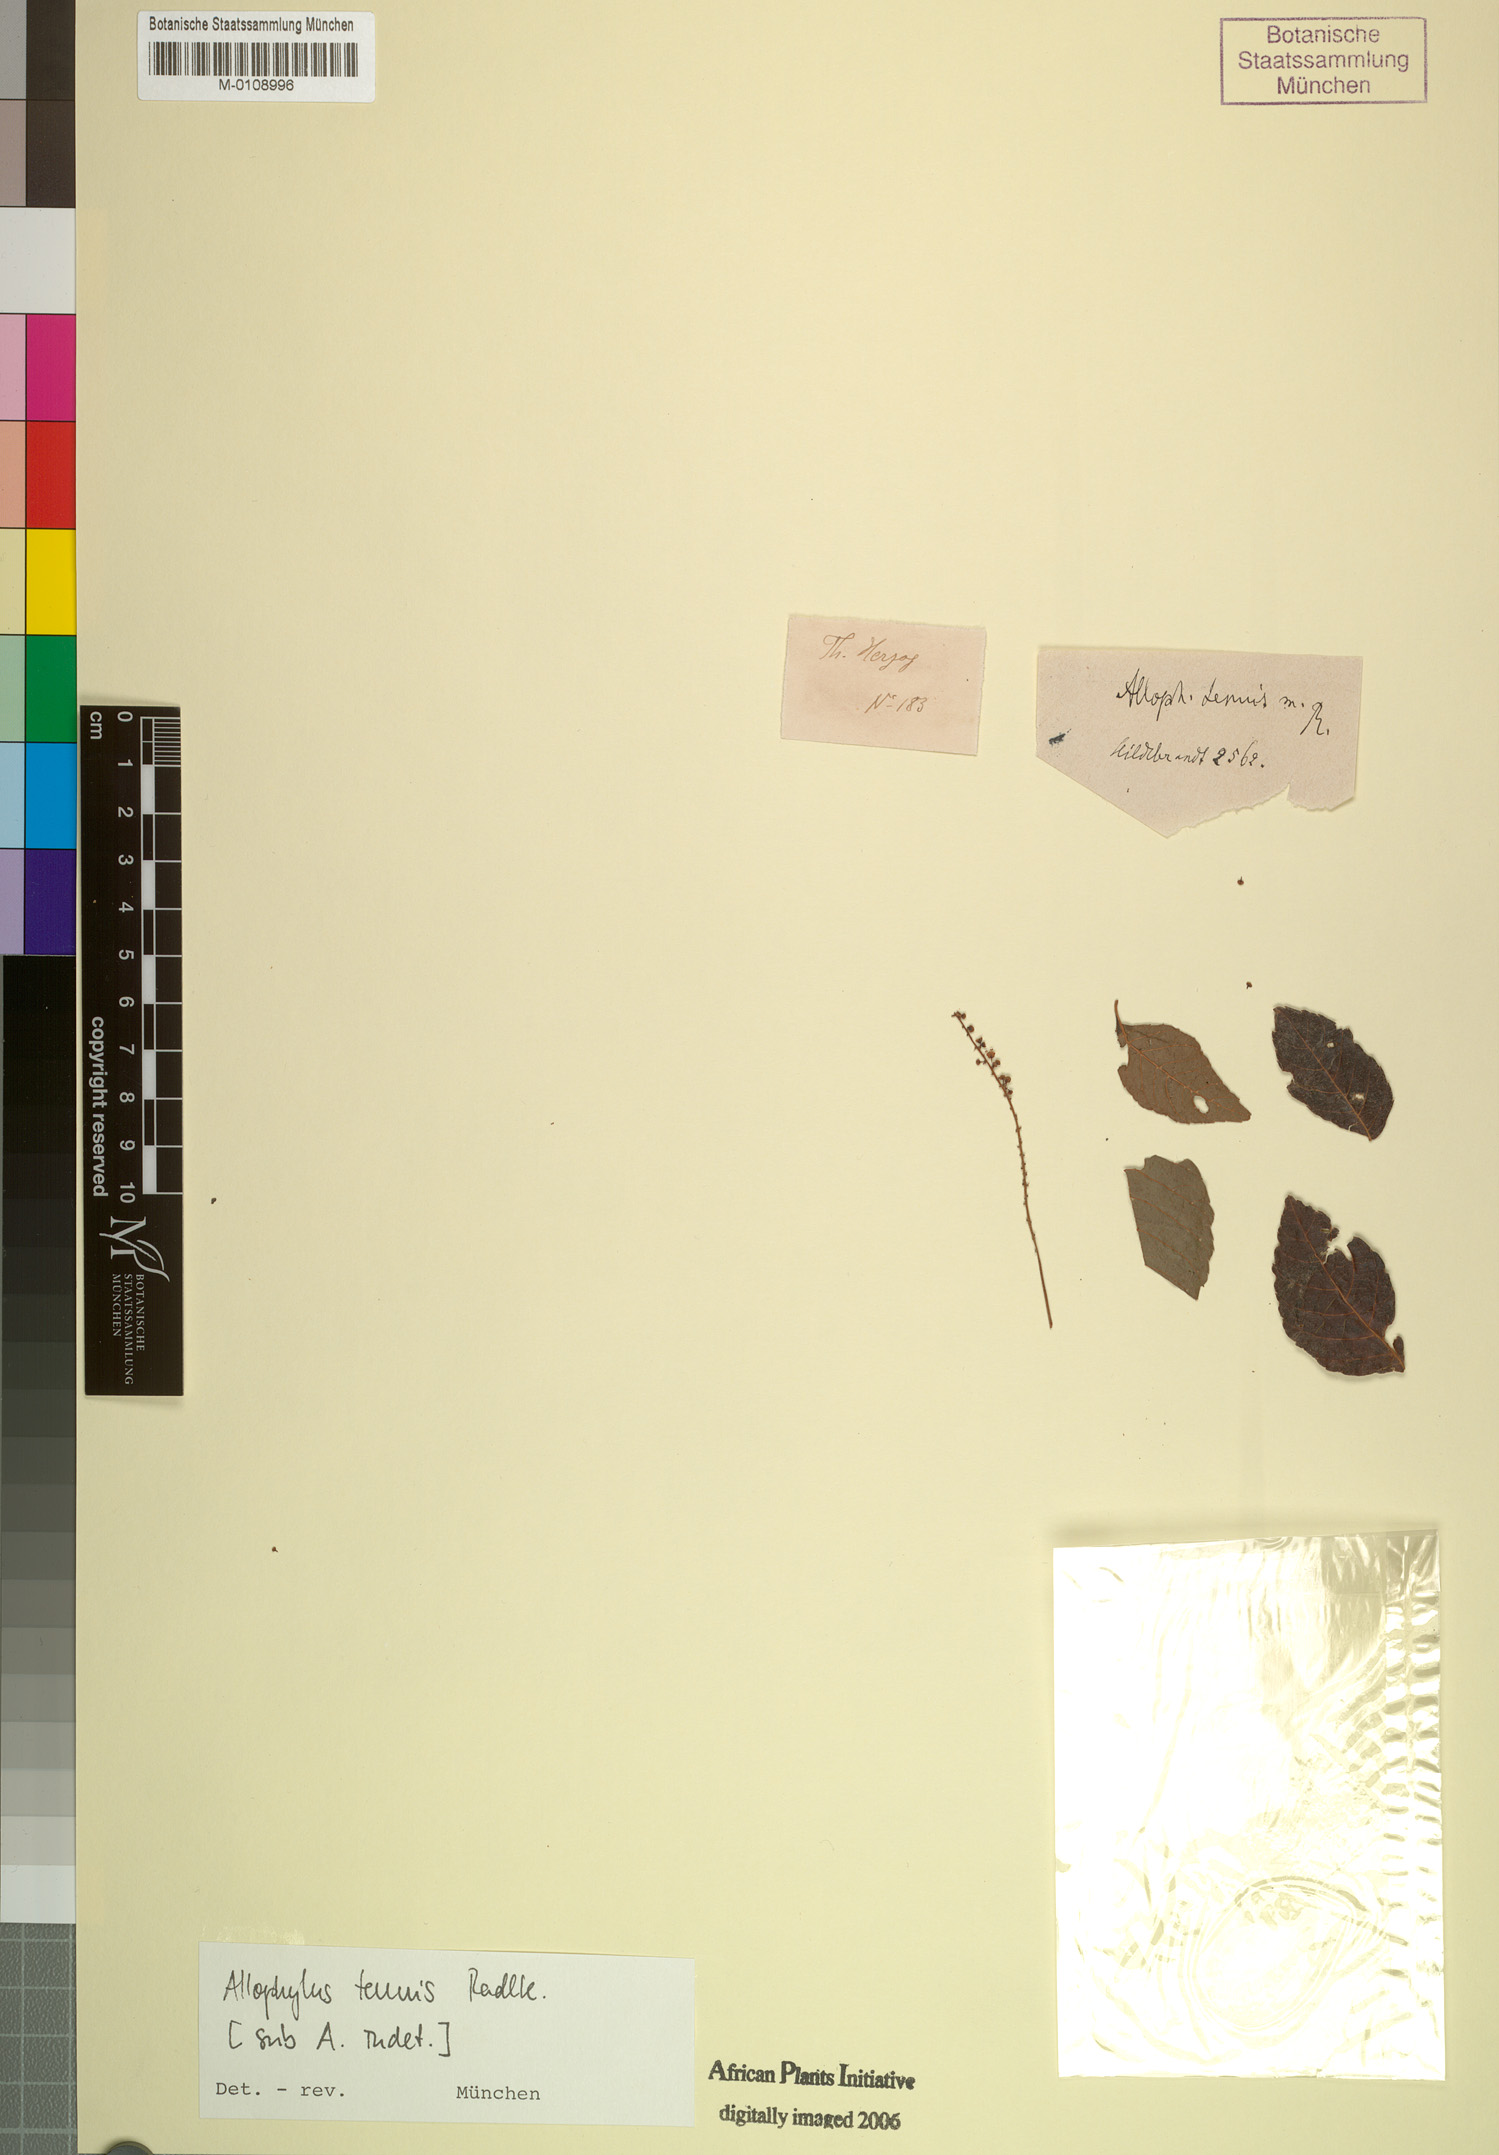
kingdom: Plantae
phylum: Tracheophyta
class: Magnoliopsida
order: Sapindales
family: Sapindaceae
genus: Allophylus
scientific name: Allophylus rubifolius
